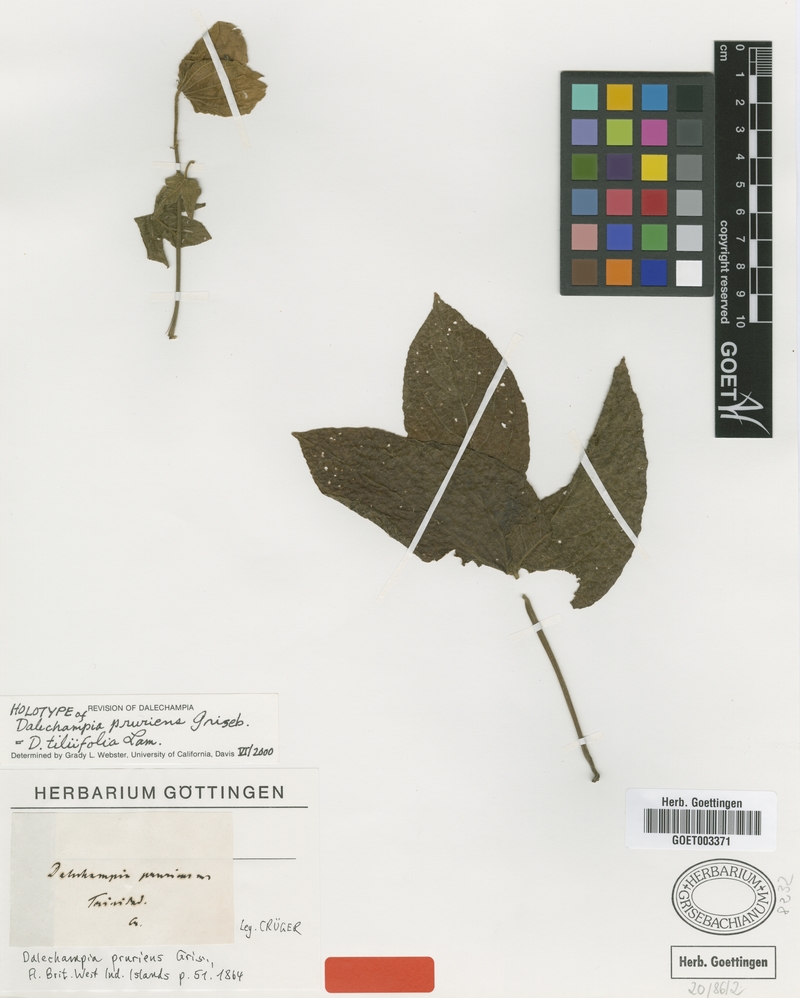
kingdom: Plantae
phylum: Tracheophyta
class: Magnoliopsida
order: Malpighiales
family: Euphorbiaceae
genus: Dalechampia
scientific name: Dalechampia tiliifolia
